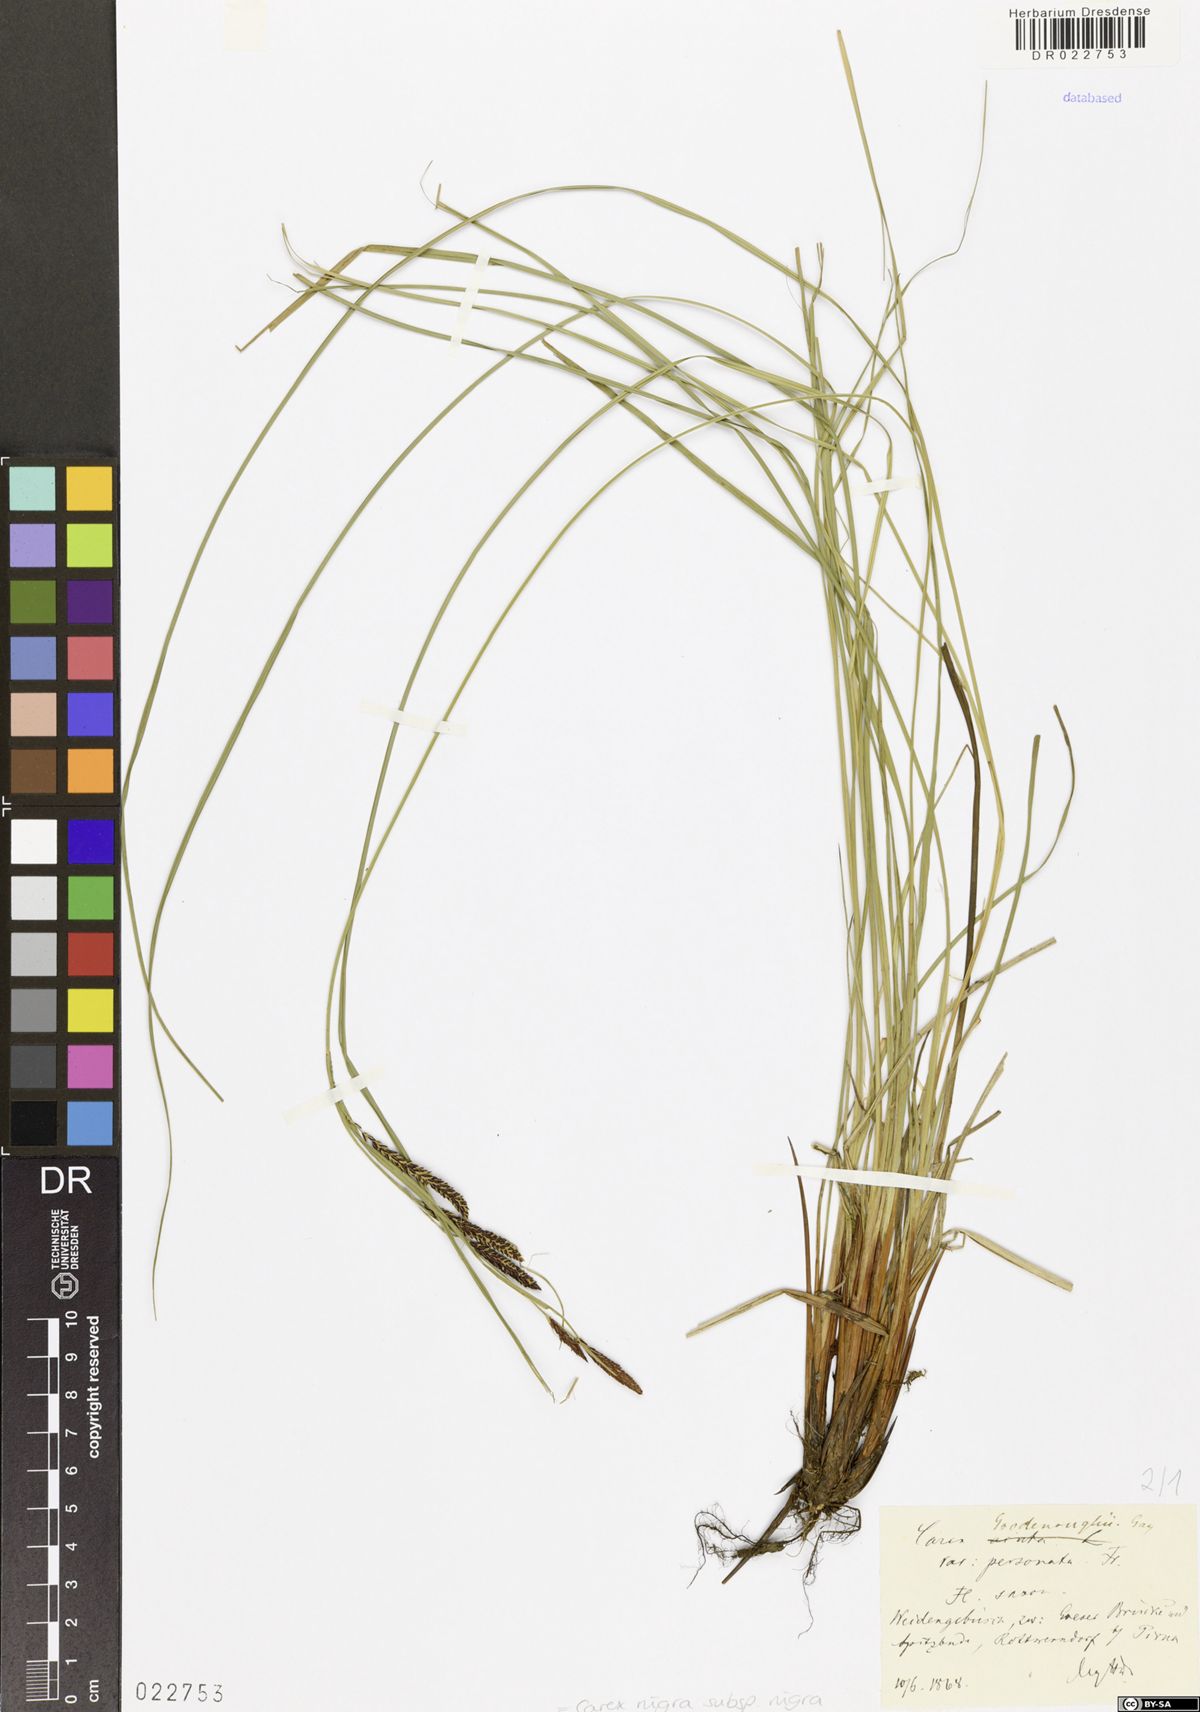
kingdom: Plantae
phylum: Tracheophyta
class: Liliopsida
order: Poales
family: Cyperaceae
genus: Carex
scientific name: Carex nigra
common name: Common sedge
